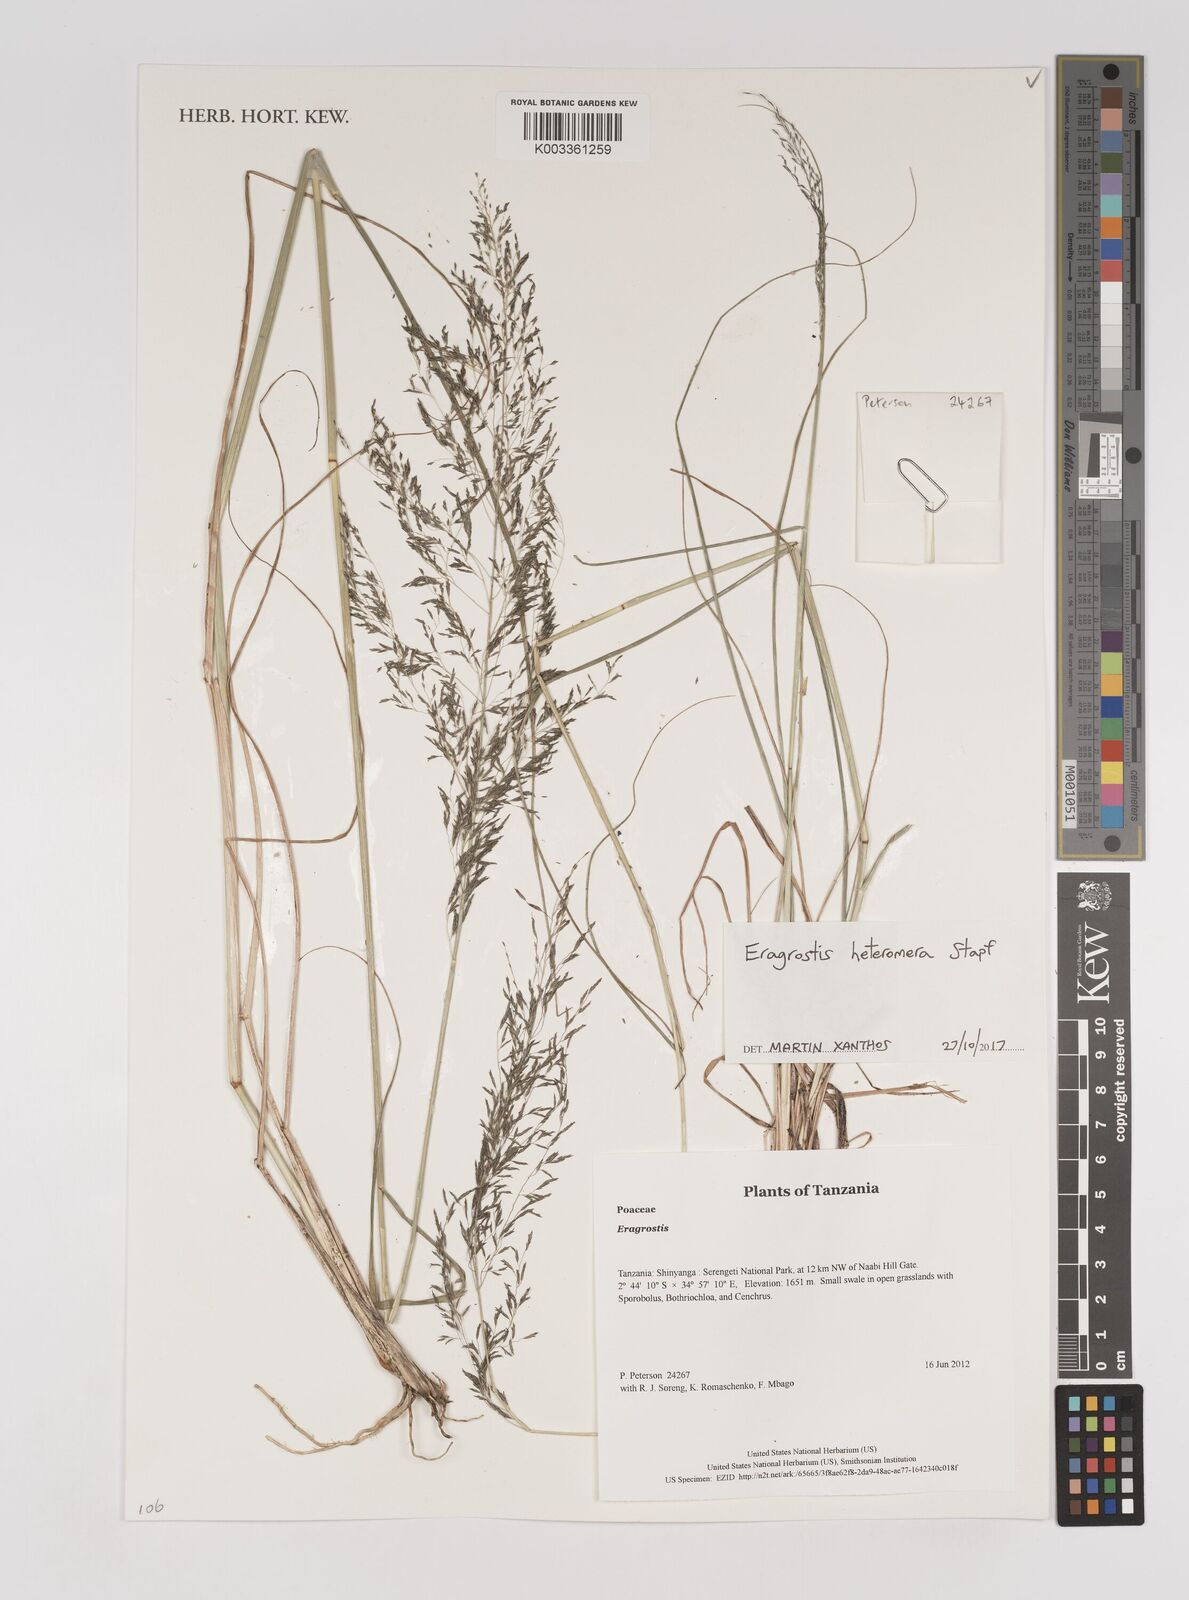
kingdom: Plantae
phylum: Tracheophyta
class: Liliopsida
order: Poales
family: Poaceae
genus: Eragrostis
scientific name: Eragrostis heteromera
